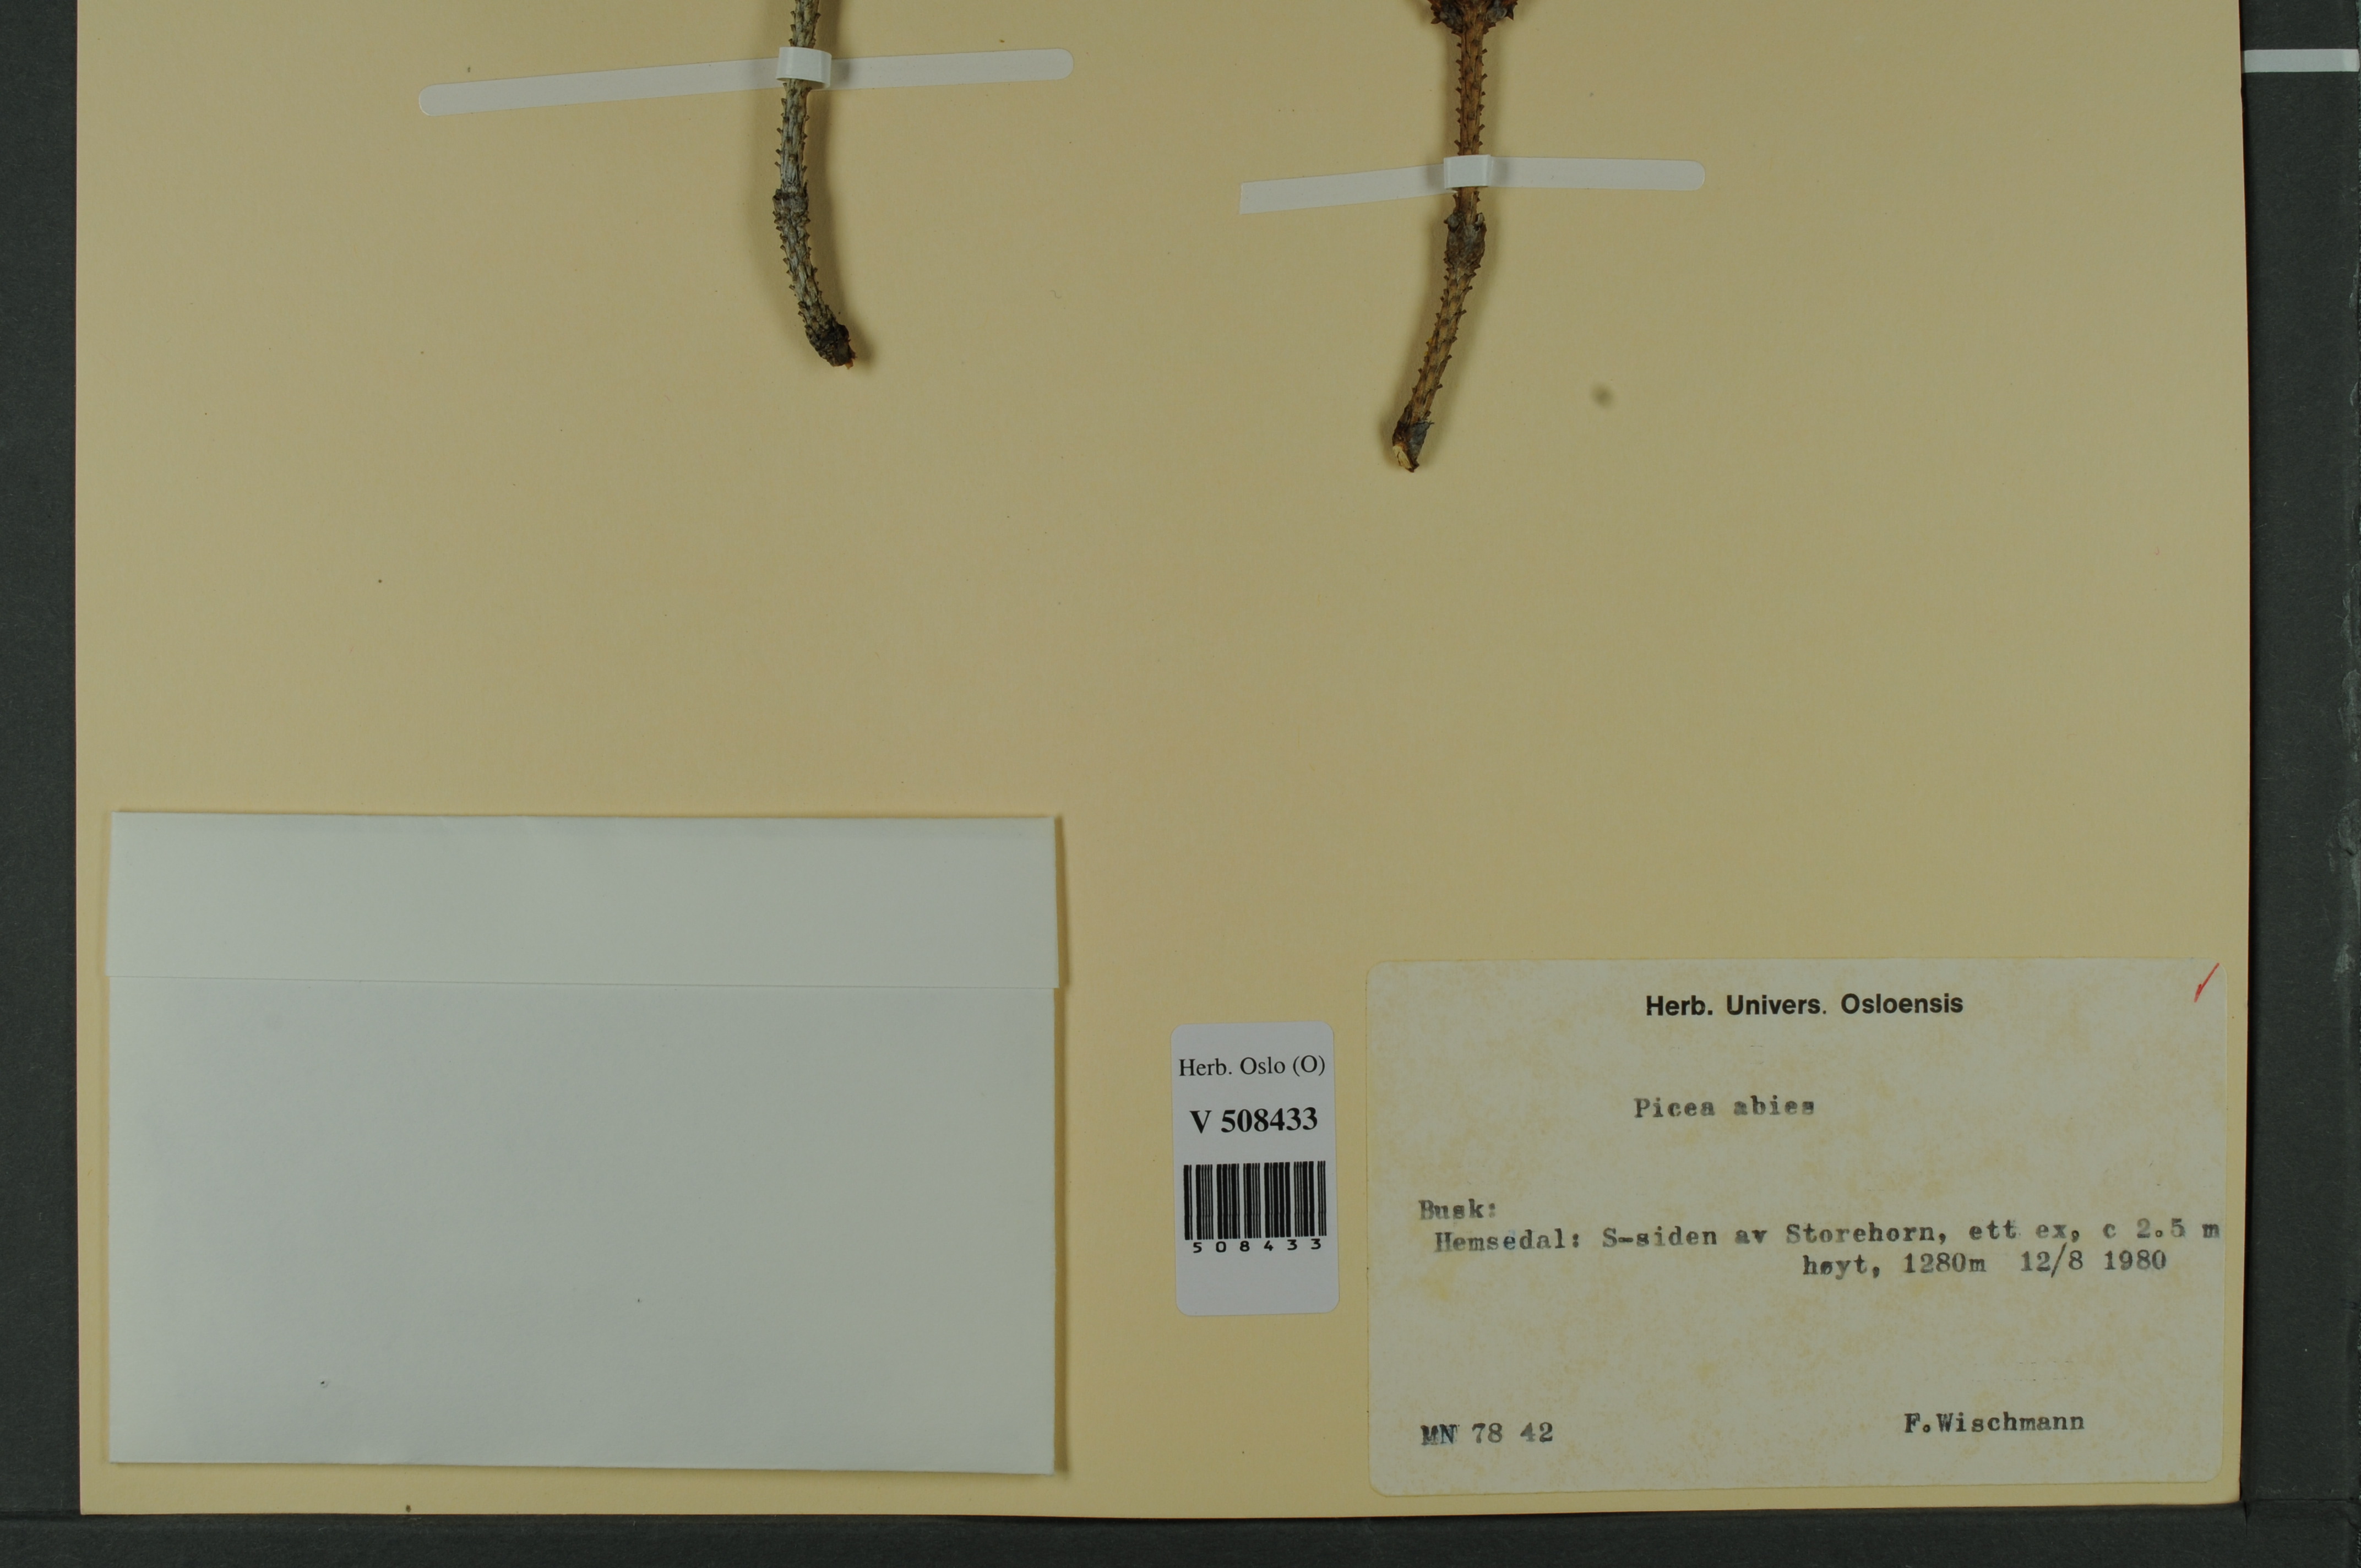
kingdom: Plantae
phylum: Tracheophyta
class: Pinopsida
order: Pinales
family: Pinaceae
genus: Picea
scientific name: Picea abies
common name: Norway spruce
